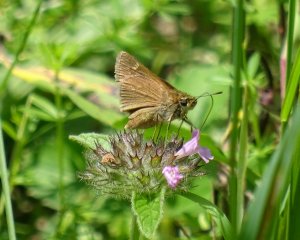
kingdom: Animalia
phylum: Arthropoda
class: Insecta
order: Lepidoptera
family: Hesperiidae
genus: Polites
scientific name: Polites
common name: Crossline Skipper
